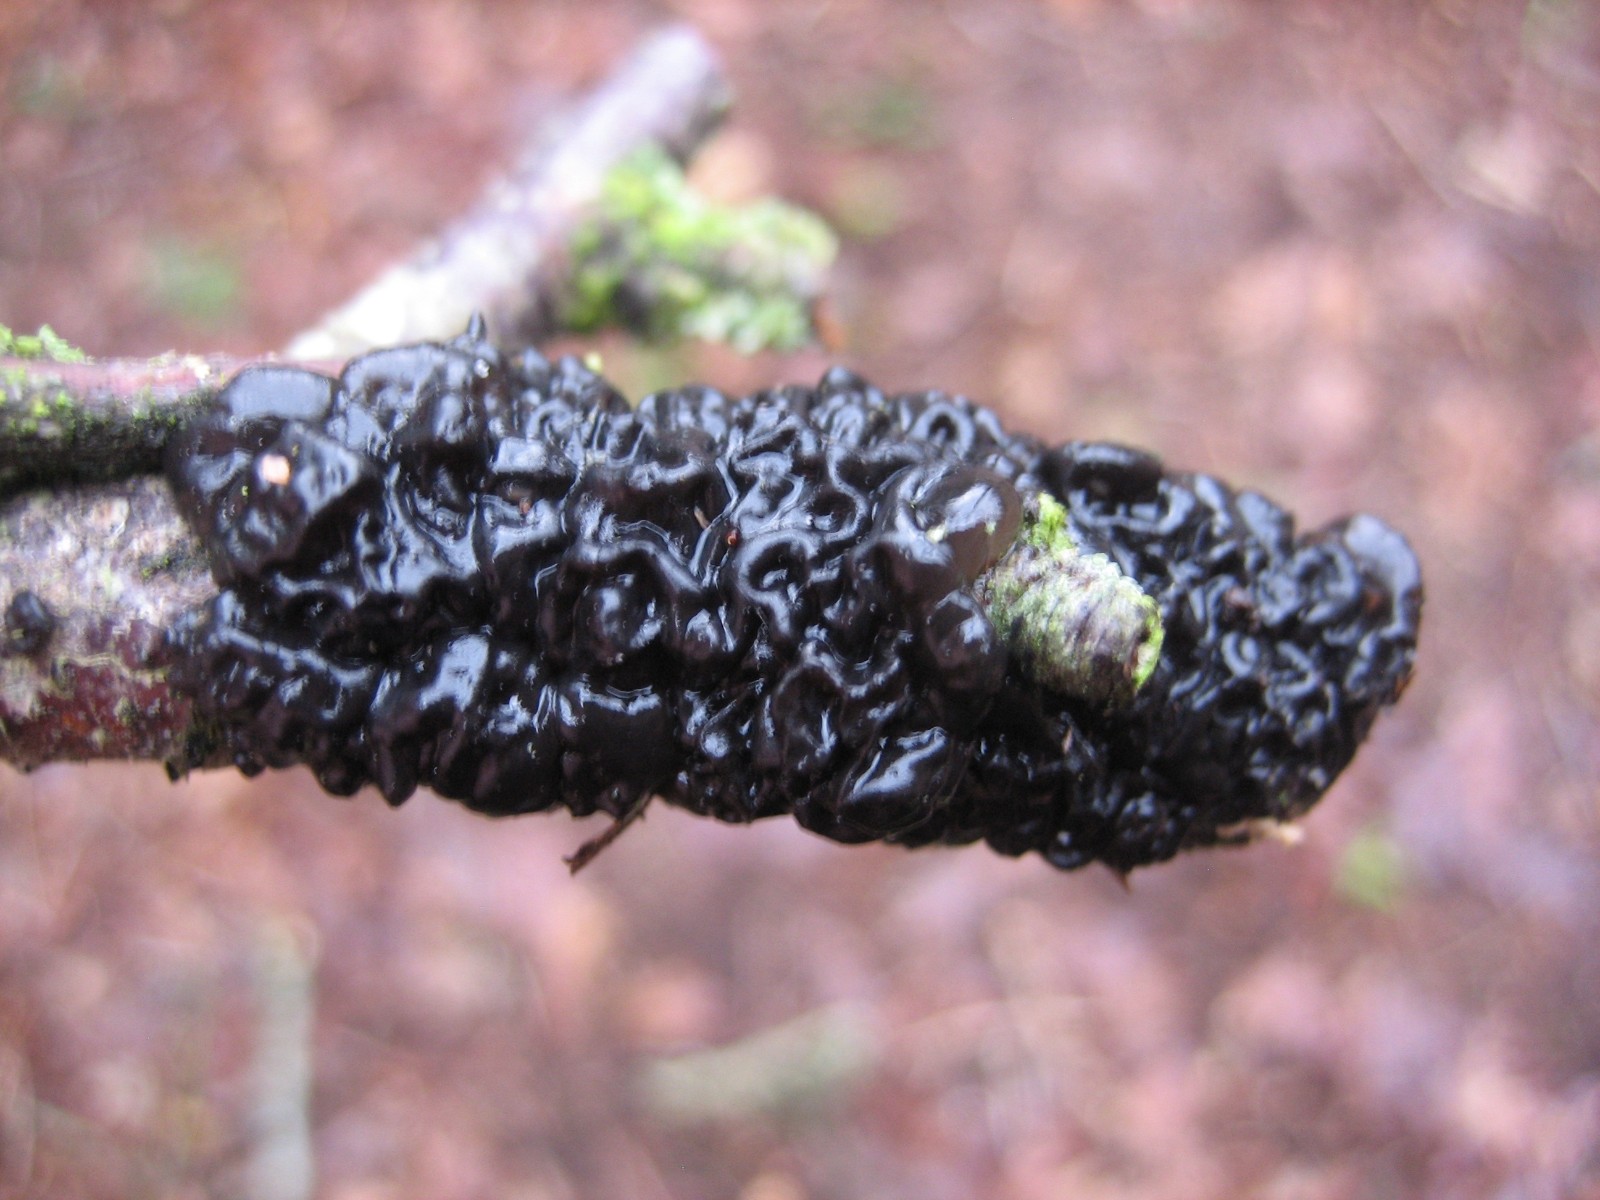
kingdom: Fungi
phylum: Basidiomycota
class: Agaricomycetes
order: Auriculariales
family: Auriculariaceae
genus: Exidia
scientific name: Exidia nigricans
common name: almindelig bævretop
